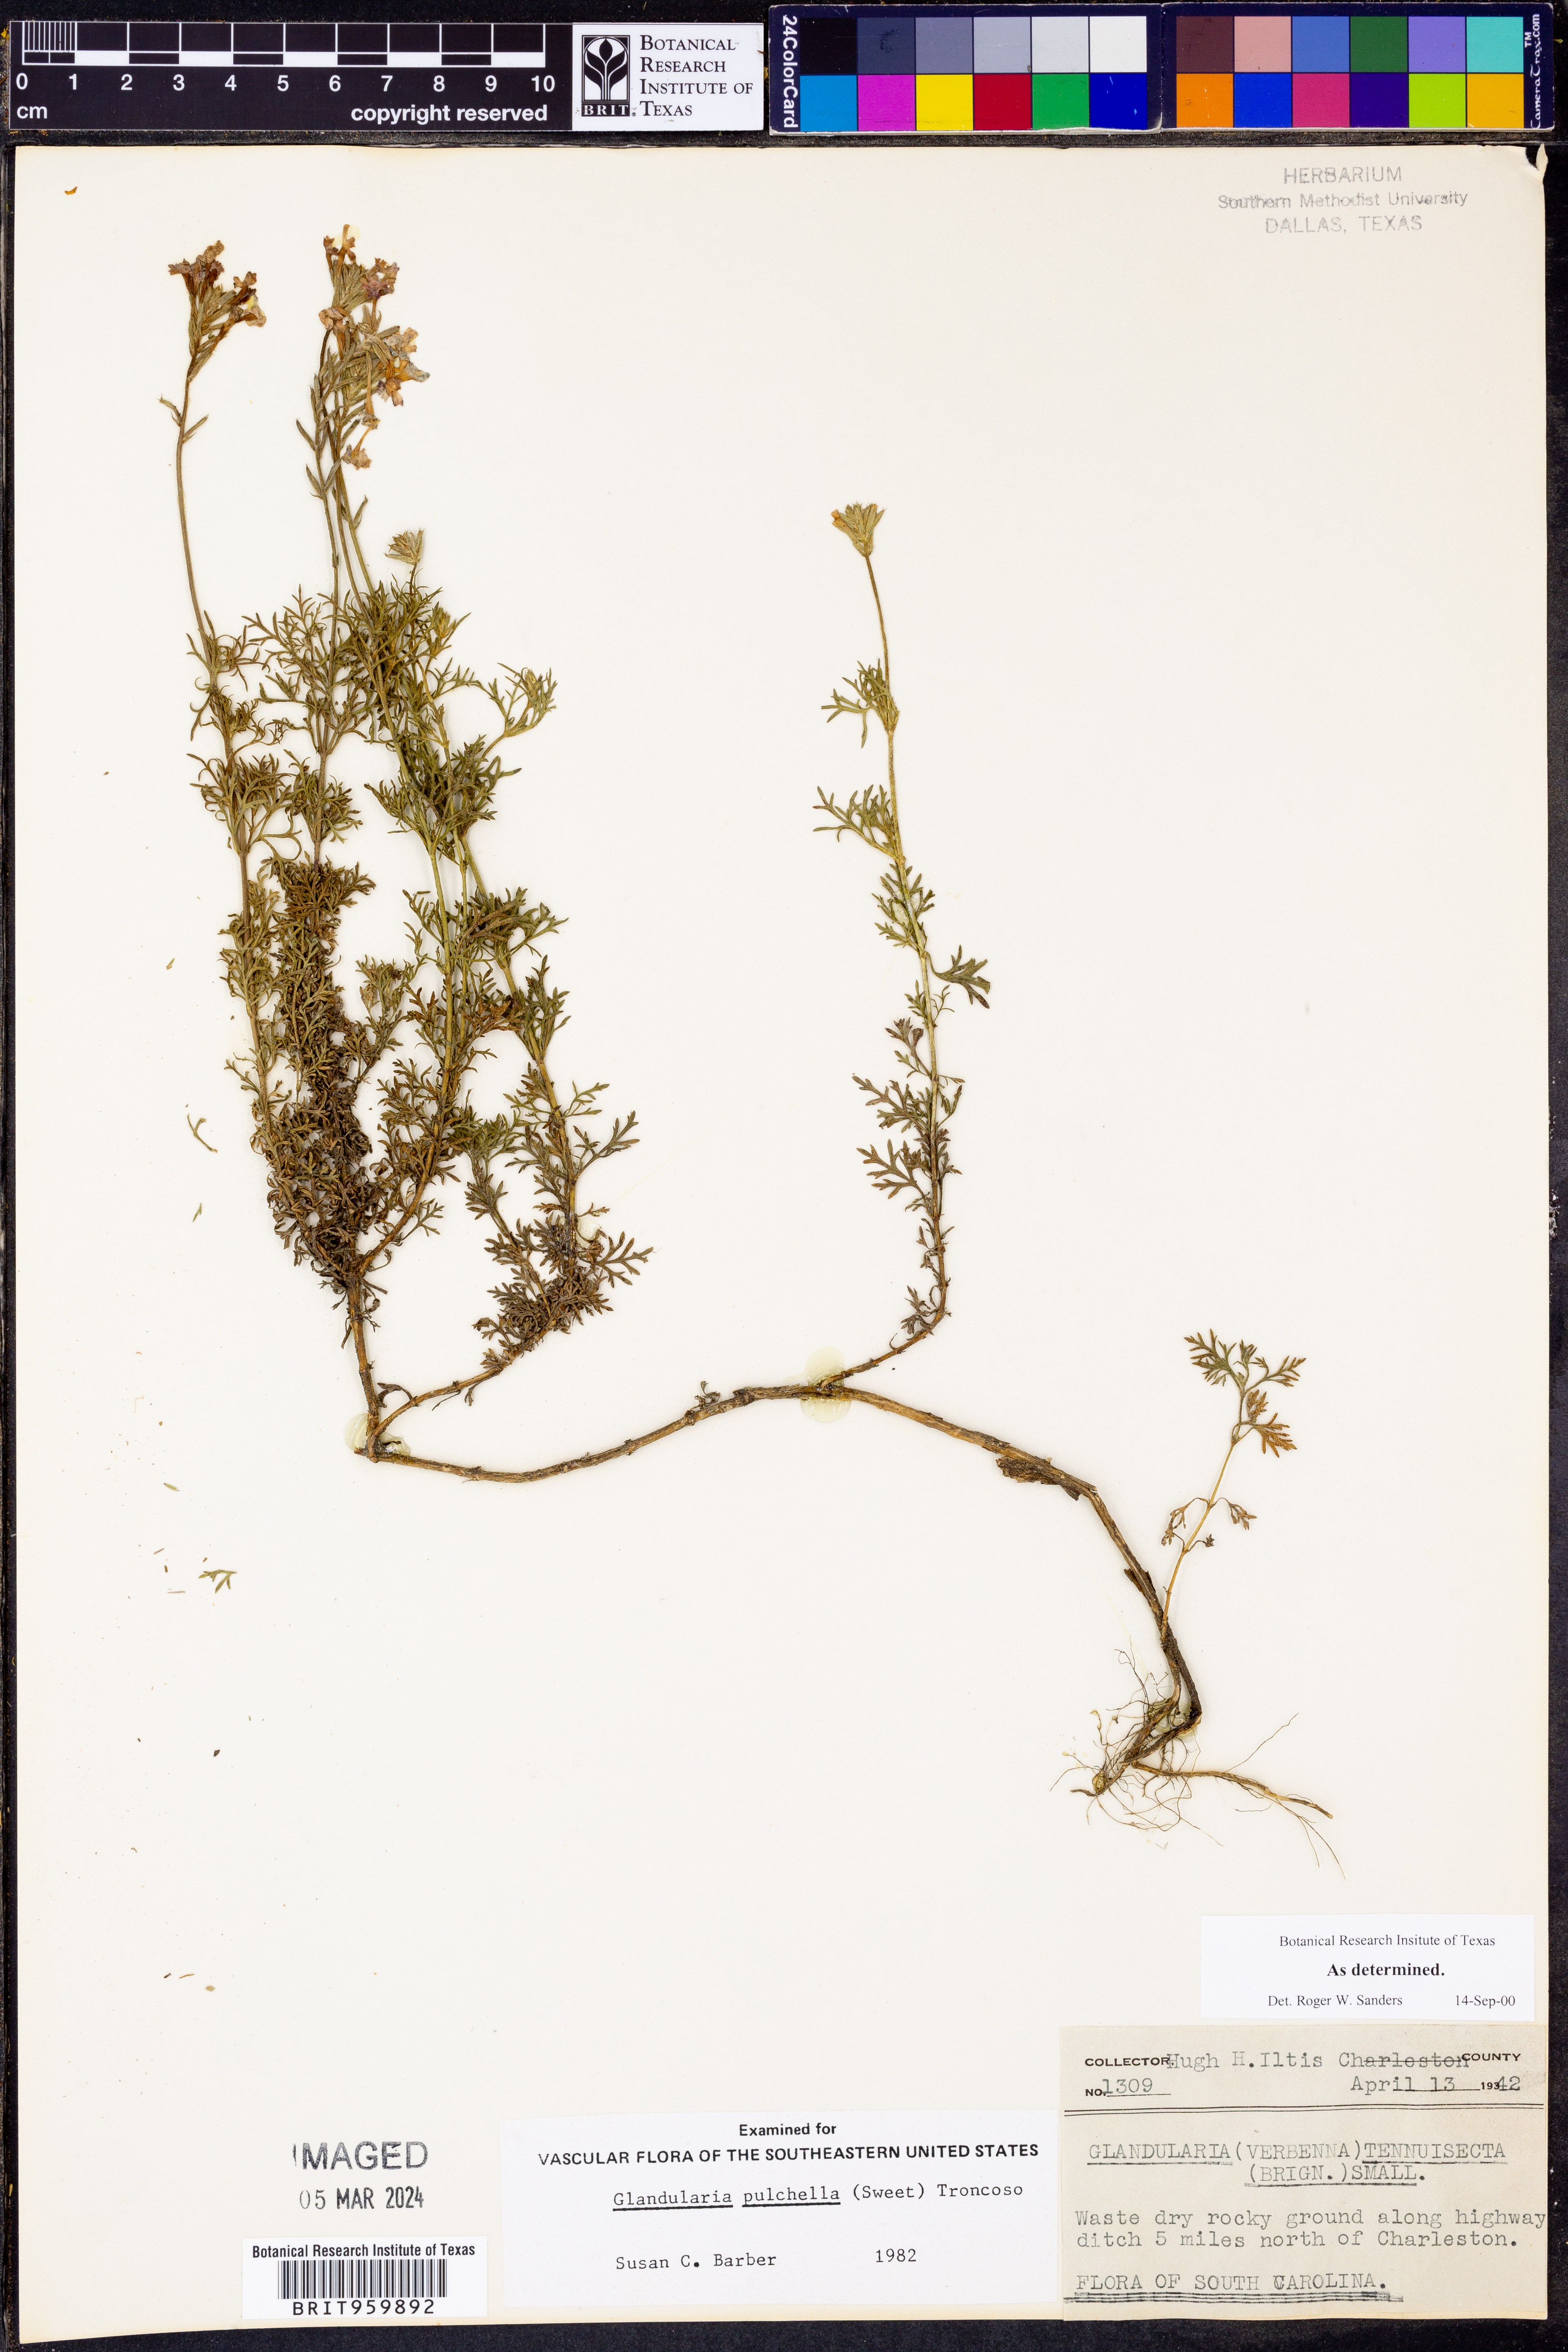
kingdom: Plantae
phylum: Tracheophyta
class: Magnoliopsida
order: Lamiales
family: Verbenaceae
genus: Verbena
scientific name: Verbena tenera
